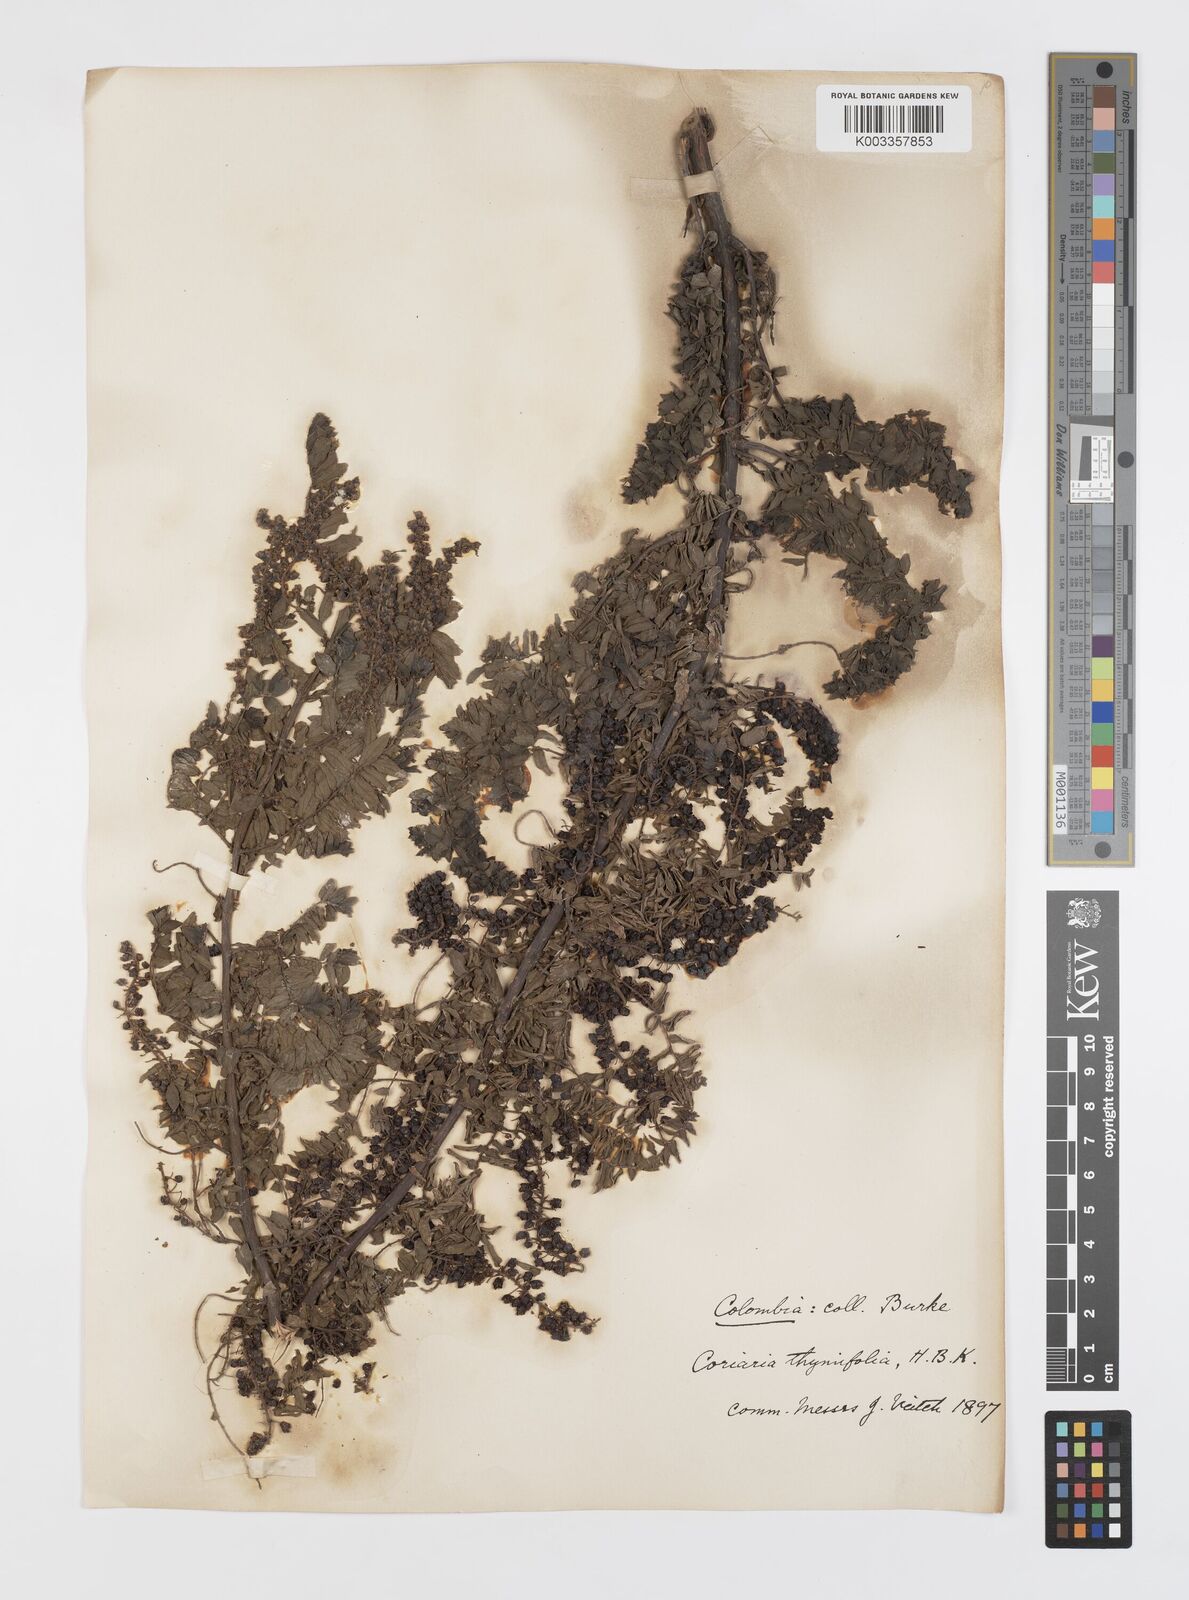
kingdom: Plantae
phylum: Tracheophyta
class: Magnoliopsida
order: Cucurbitales
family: Coriariaceae
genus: Coriaria
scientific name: Coriaria microphylla
